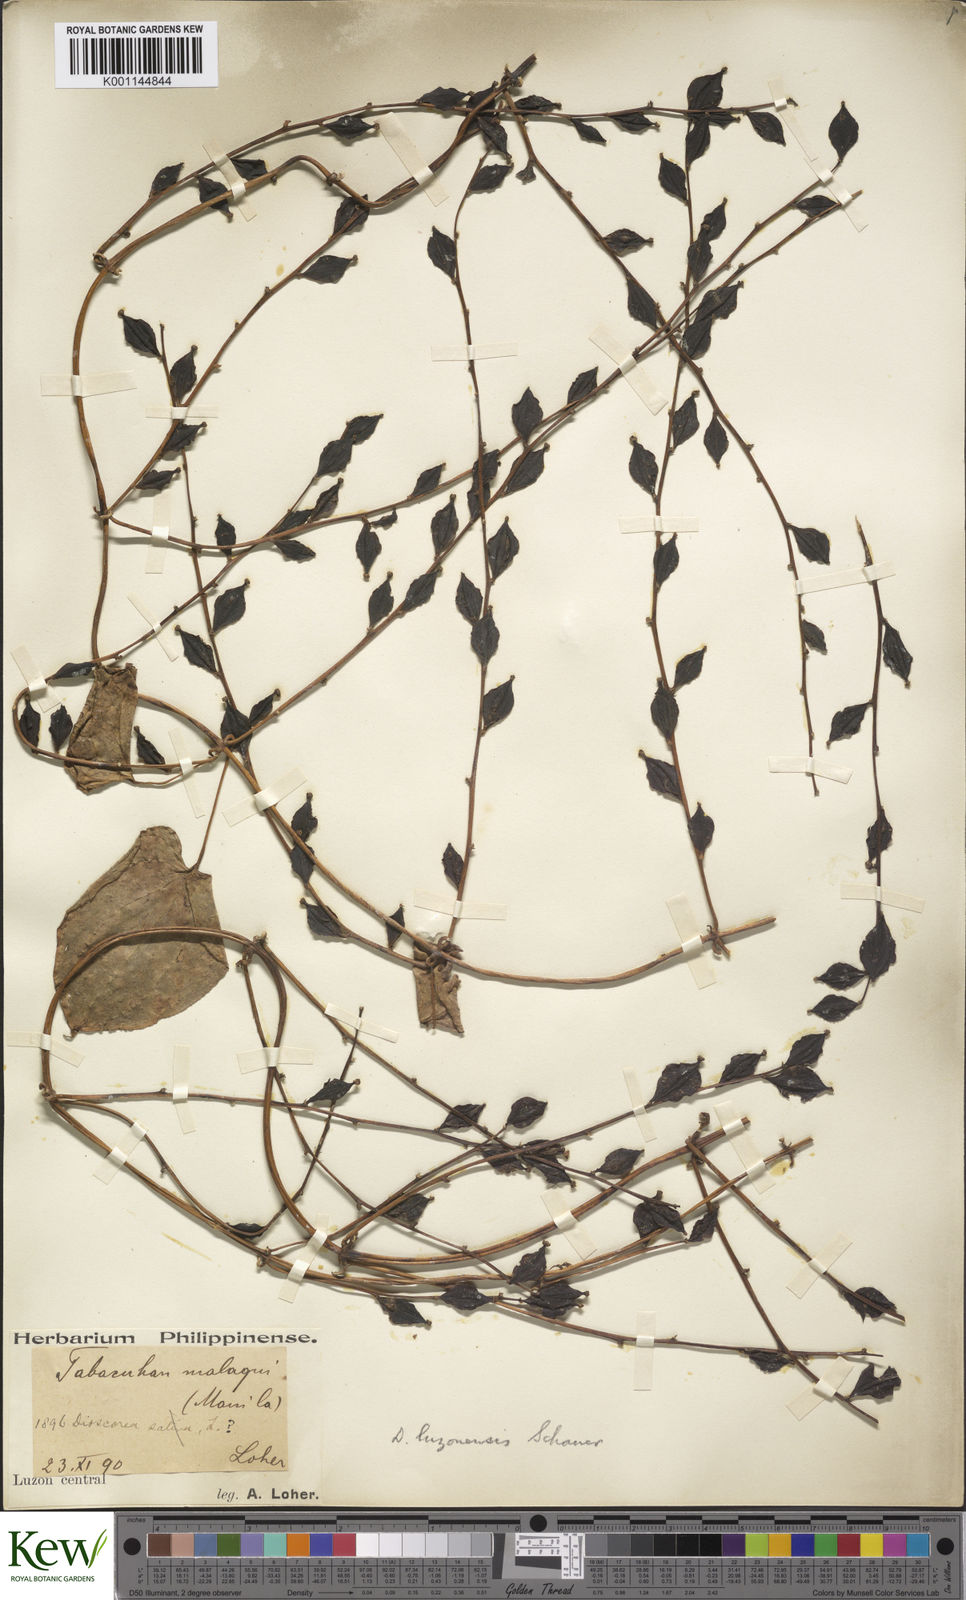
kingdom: Plantae
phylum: Tracheophyta
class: Liliopsida
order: Dioscoreales
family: Dioscoreaceae
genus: Dioscorea
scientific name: Dioscorea luzonensis
